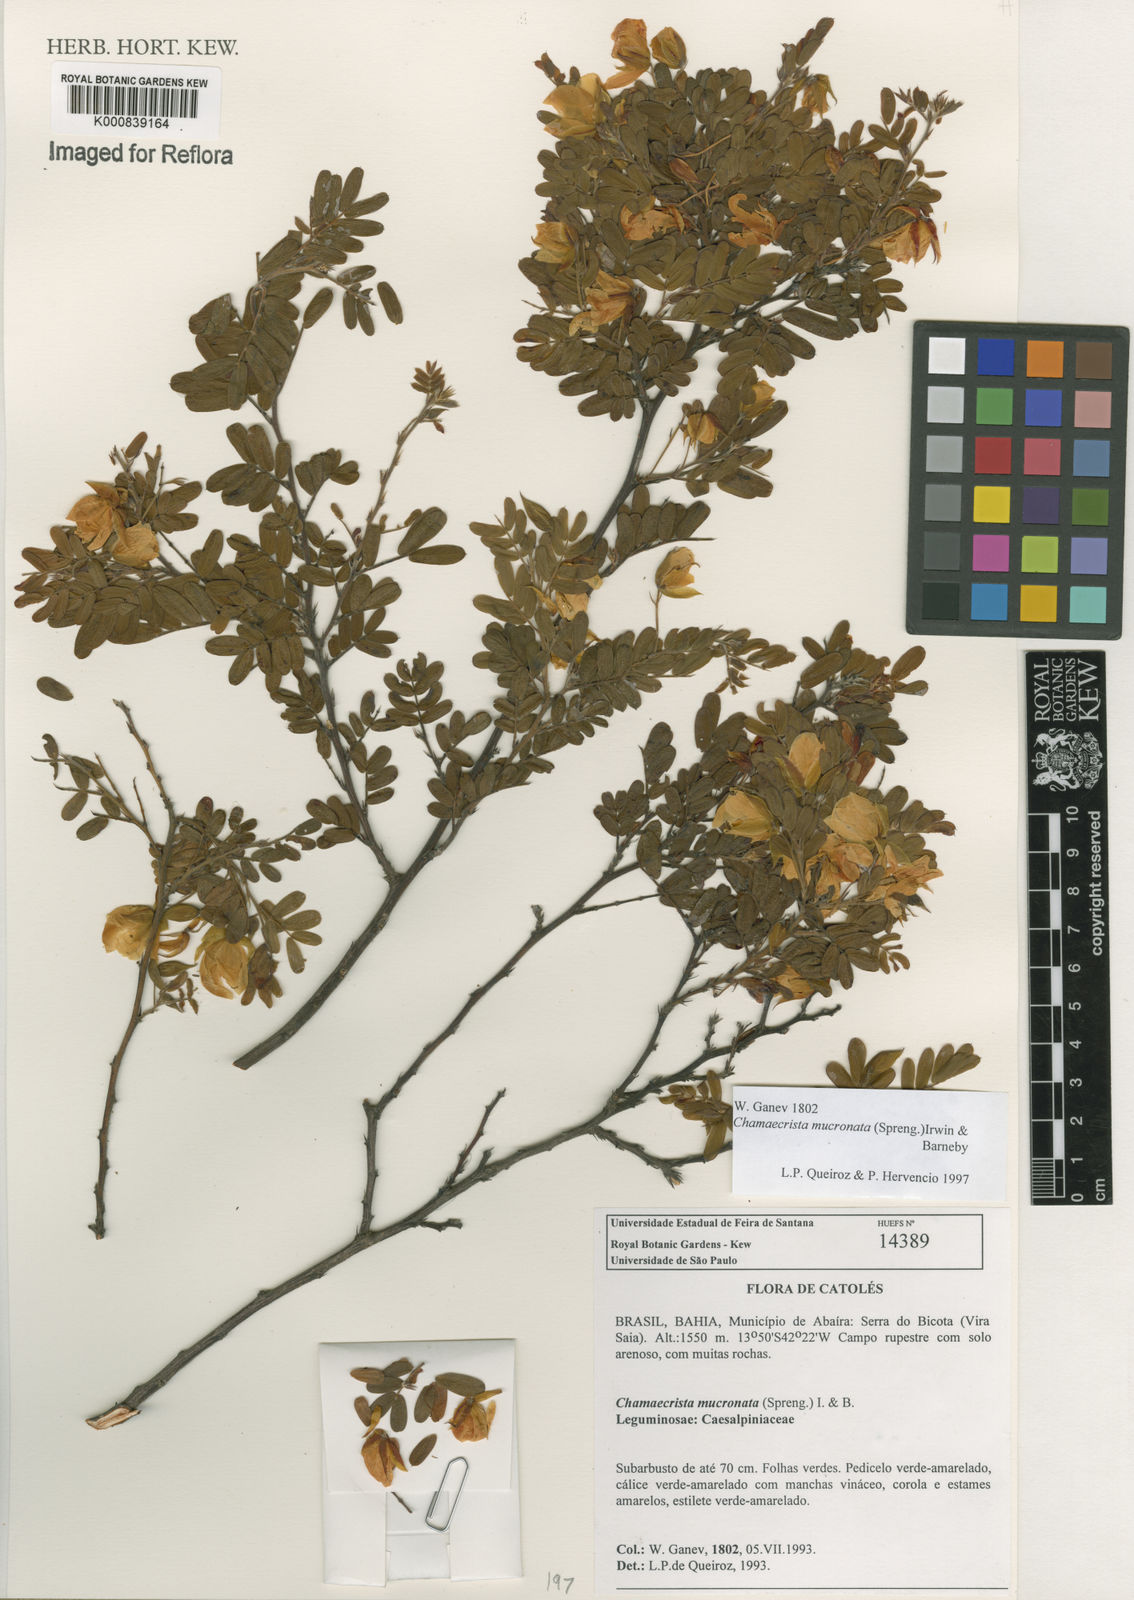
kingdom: Plantae
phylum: Tracheophyta
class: Magnoliopsida
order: Fabales
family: Fabaceae
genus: Chamaecrista
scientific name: Chamaecrista mucronata
